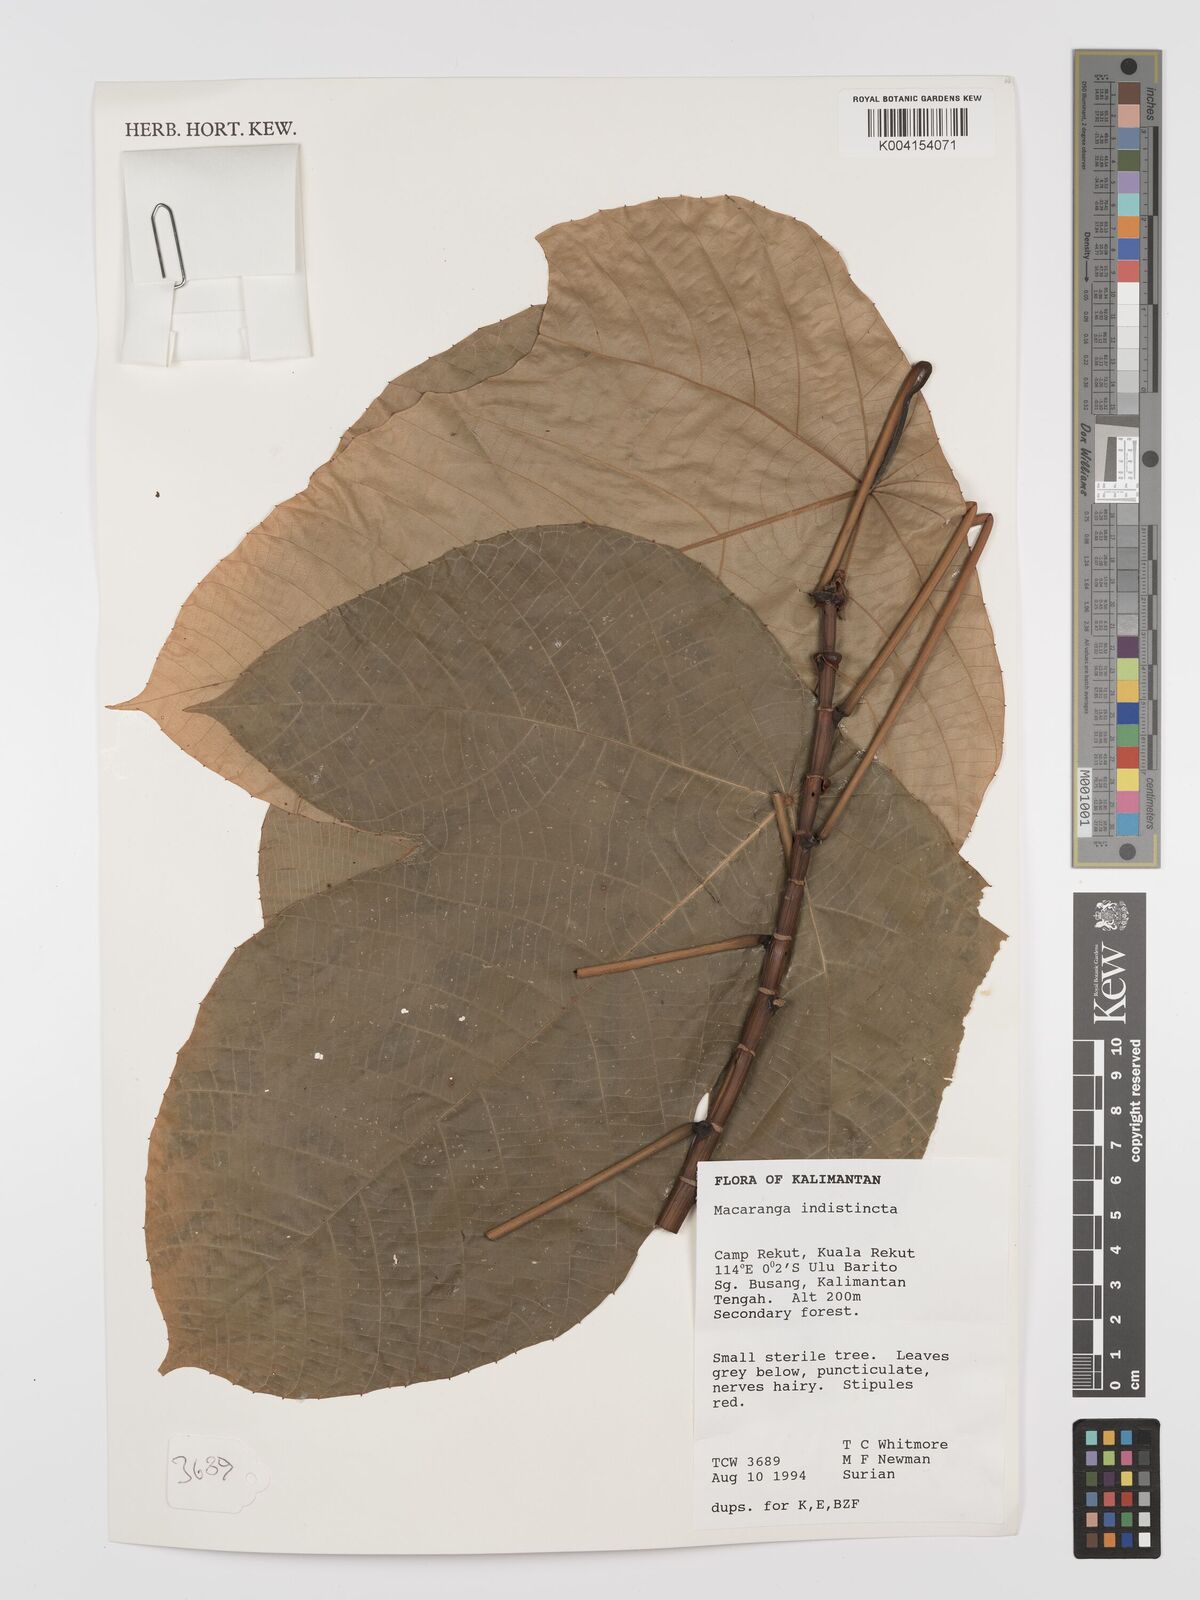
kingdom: Plantae
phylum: Tracheophyta
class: Magnoliopsida
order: Malpighiales
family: Euphorbiaceae
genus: Macaranga
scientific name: Macaranga indistincta
